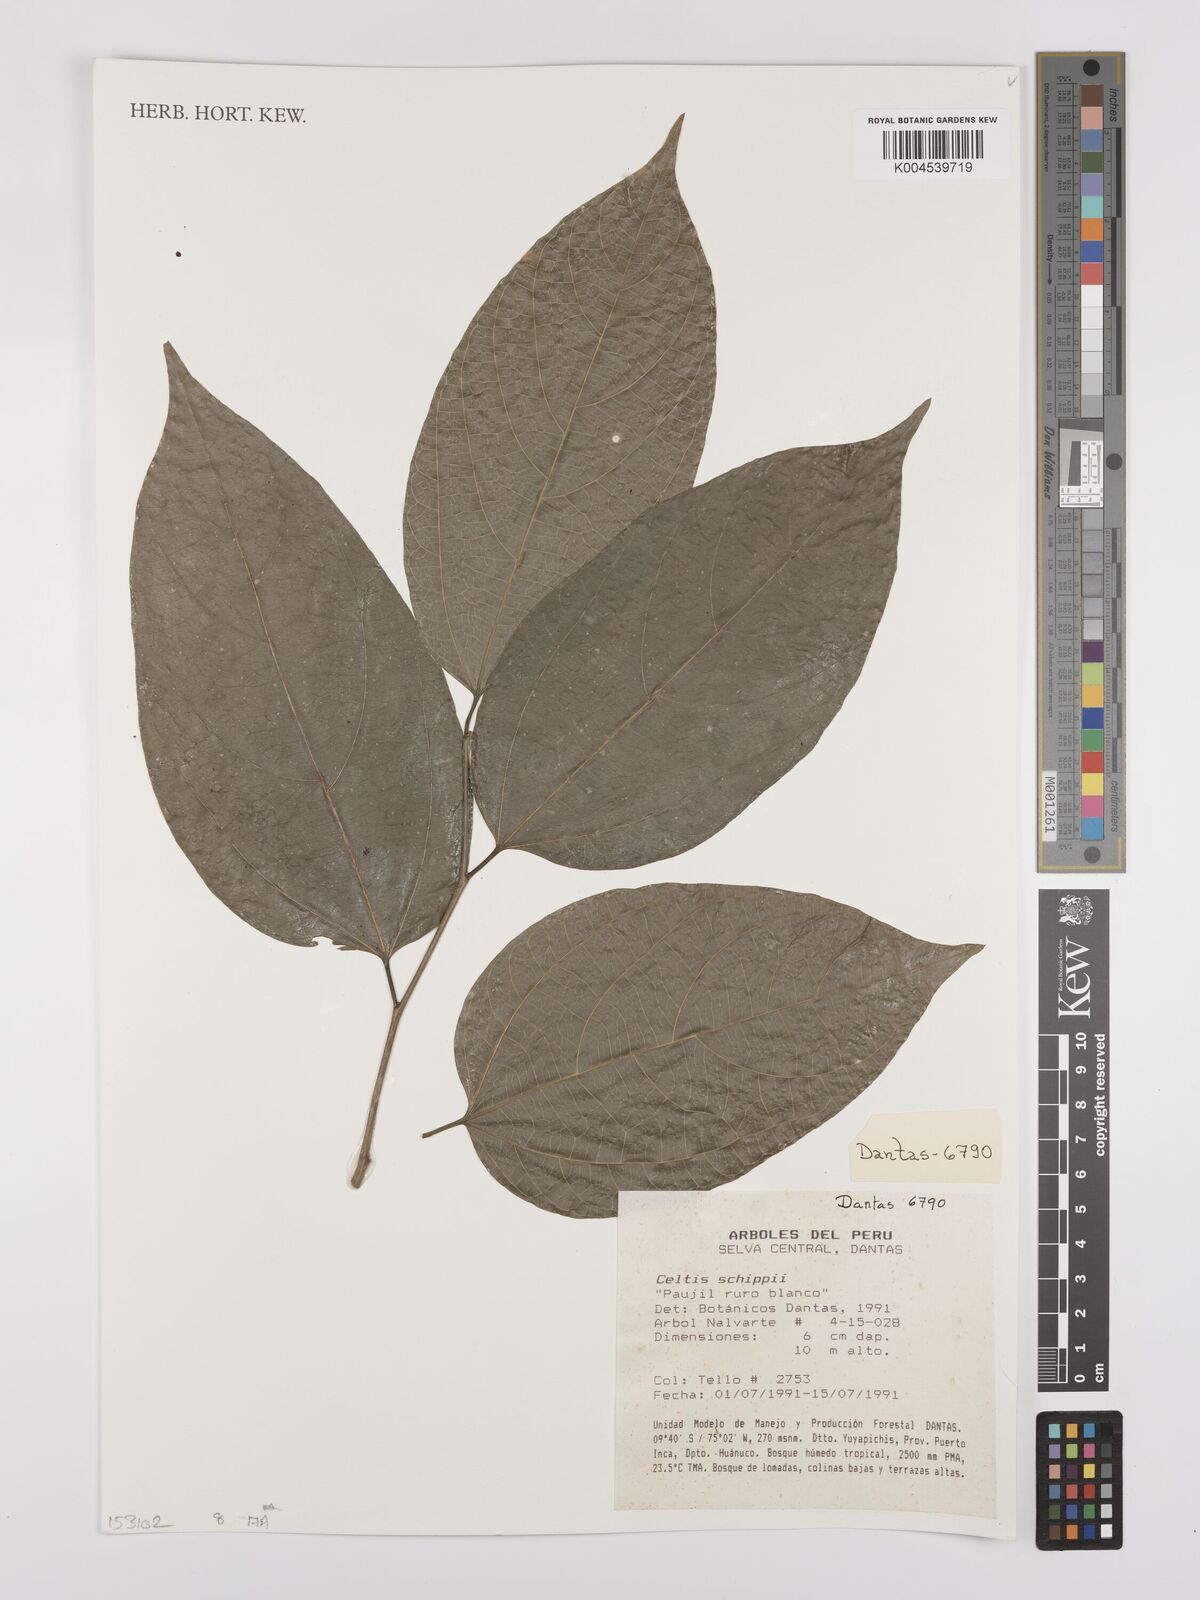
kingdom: Plantae
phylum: Tracheophyta
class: Magnoliopsida
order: Rosales
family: Cannabaceae
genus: Celtis
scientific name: Celtis schippii
